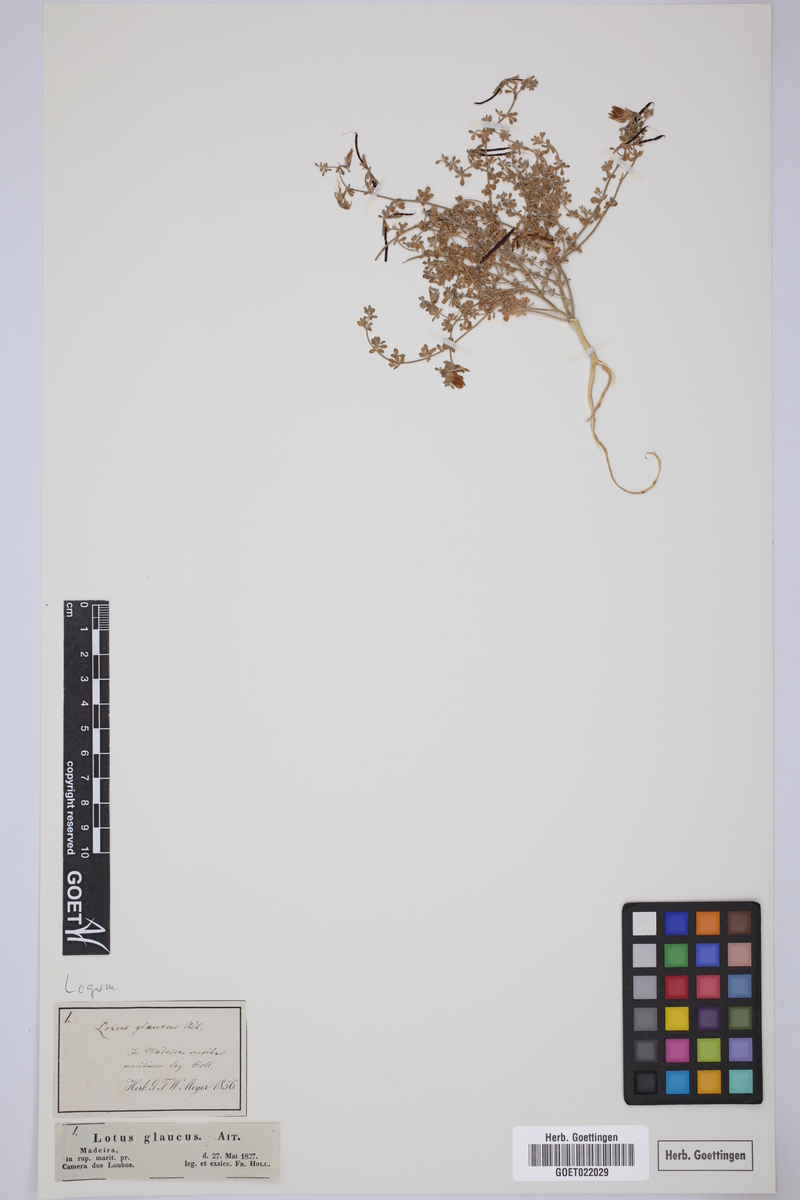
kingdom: Plantae
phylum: Tracheophyta
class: Magnoliopsida
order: Fabales
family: Fabaceae
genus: Lotus
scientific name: Lotus glaucus
